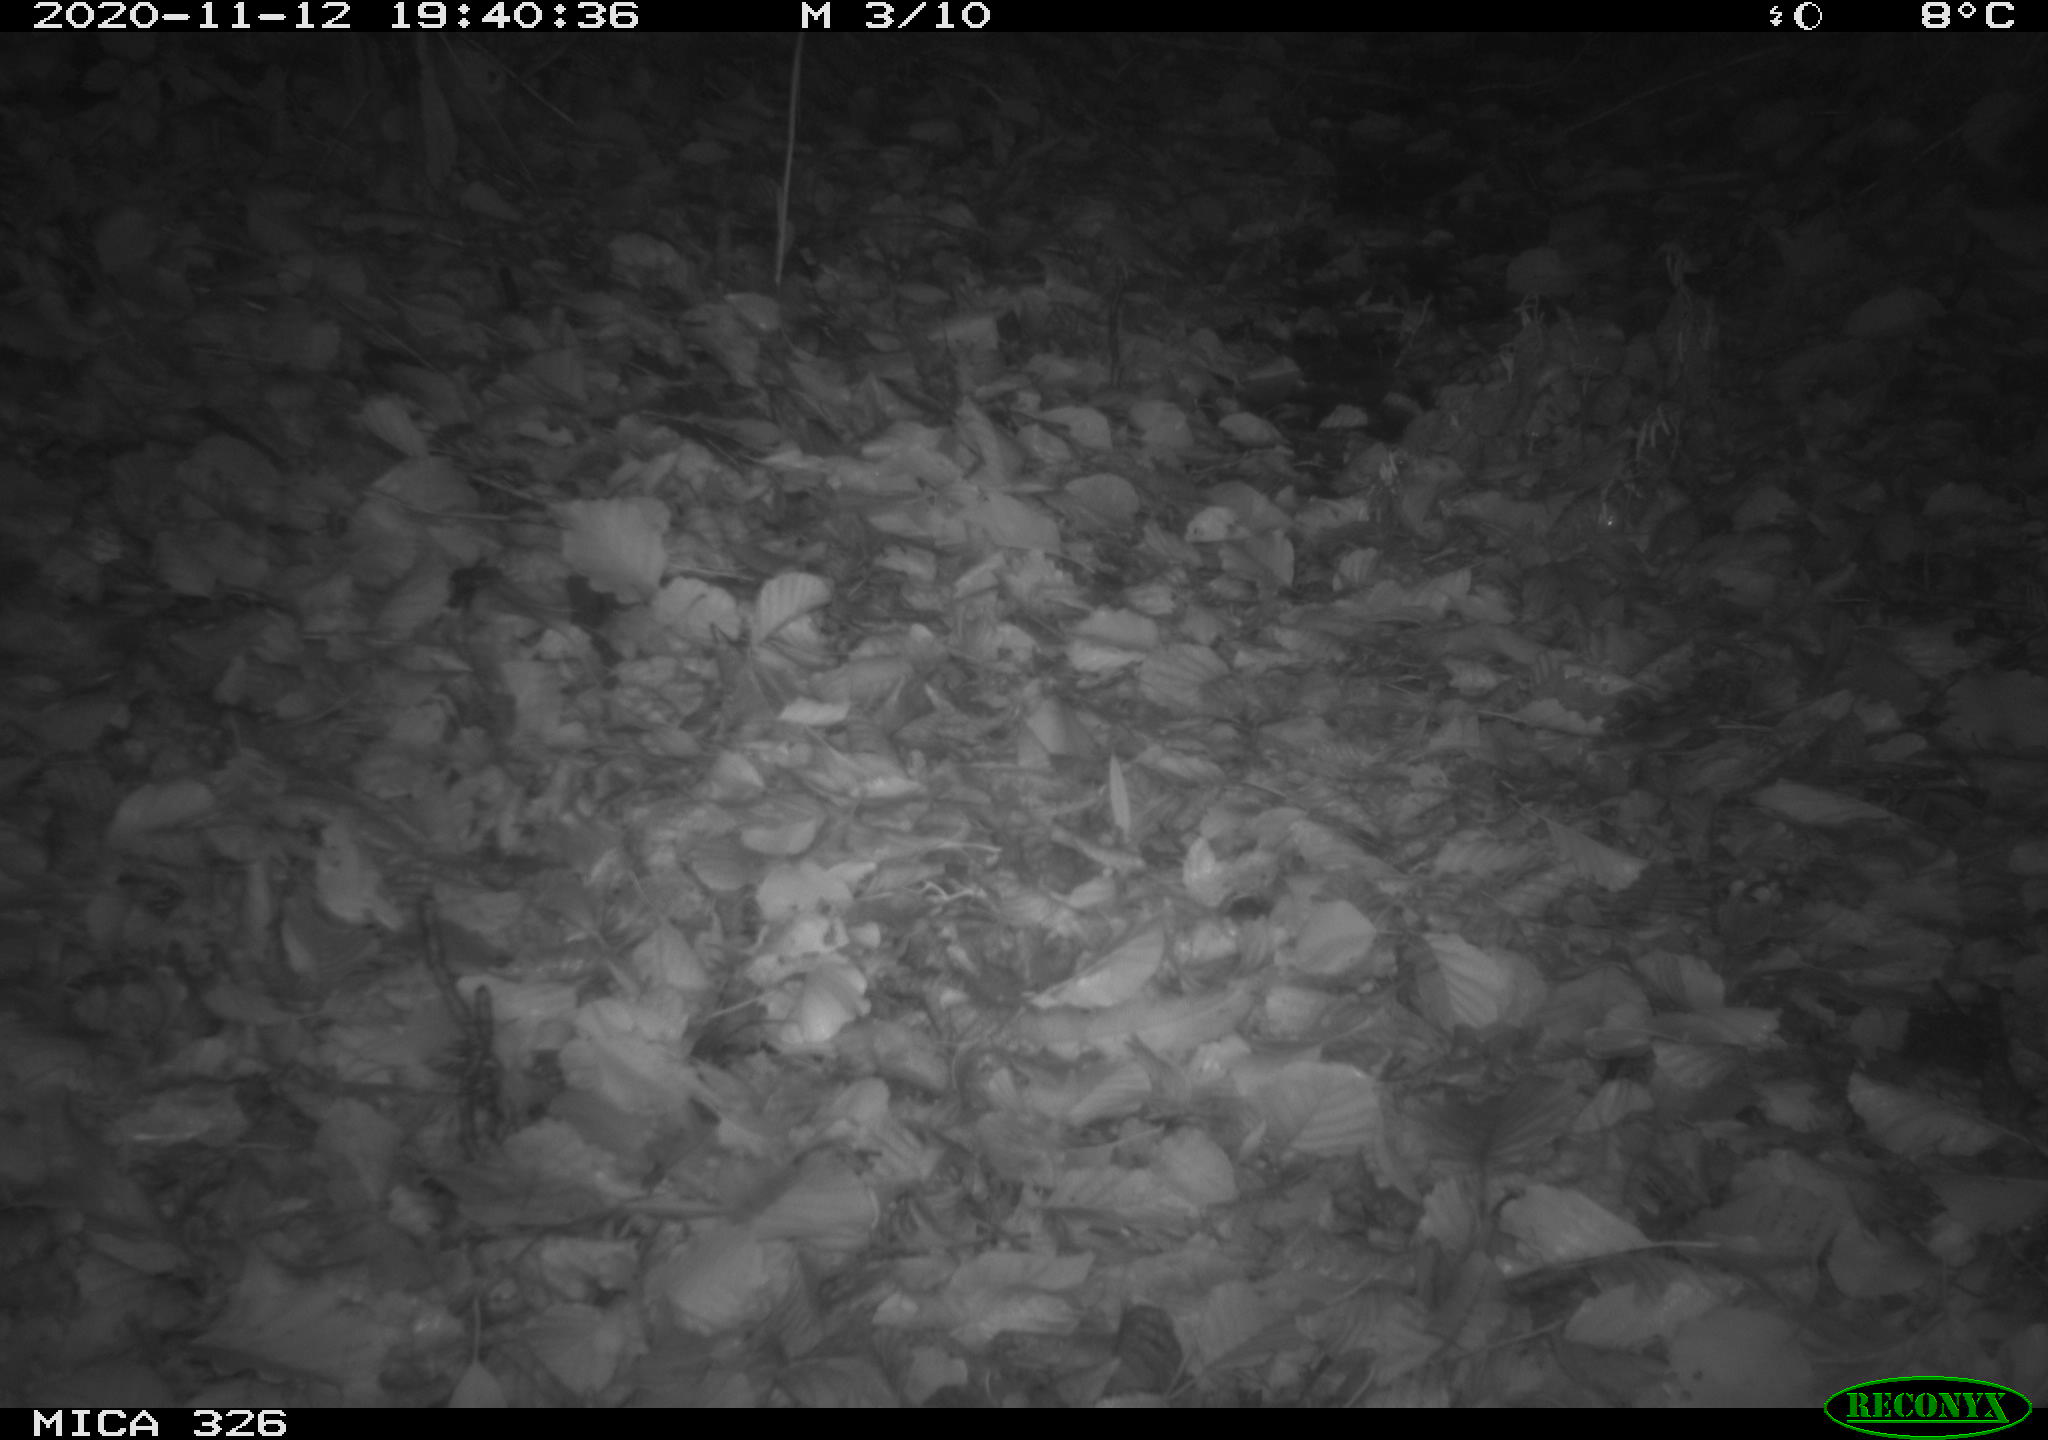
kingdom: Animalia
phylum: Chordata
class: Mammalia
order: Rodentia
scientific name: Rodentia
